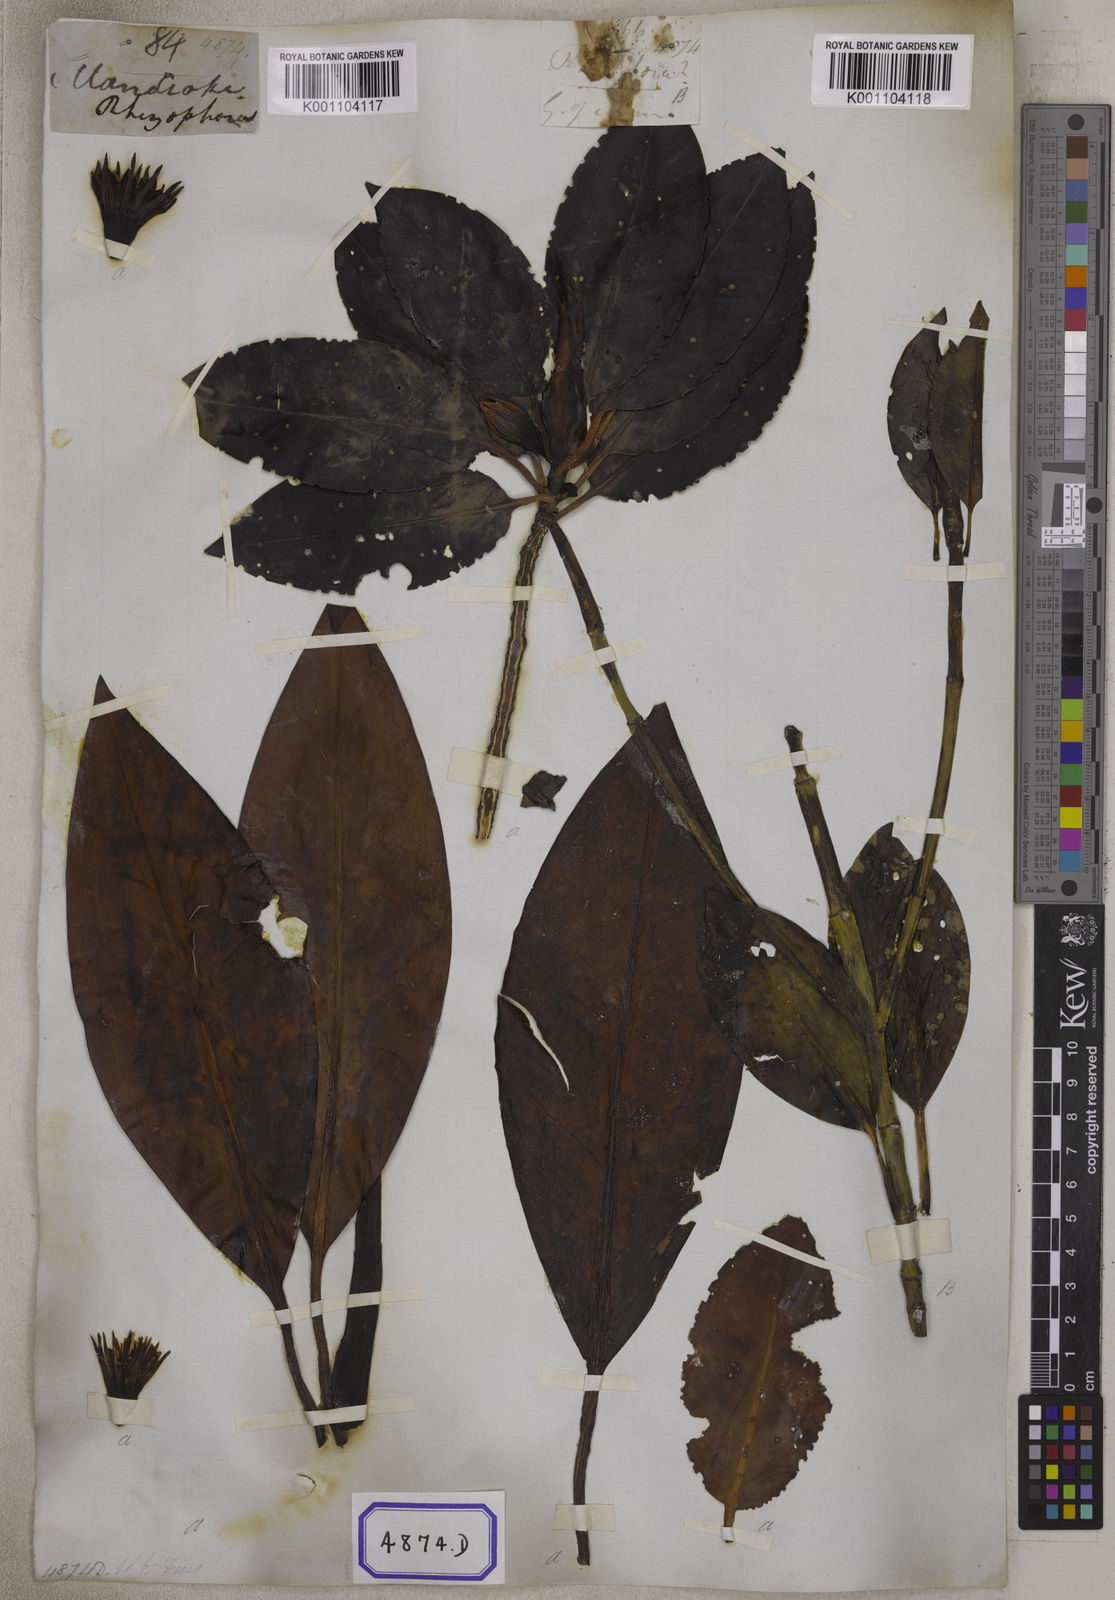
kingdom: Plantae
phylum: Tracheophyta
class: Magnoliopsida
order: Malpighiales
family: Rhizophoraceae
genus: Bruguiera
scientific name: Bruguiera gymnorhiza
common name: Oriental mangrove
